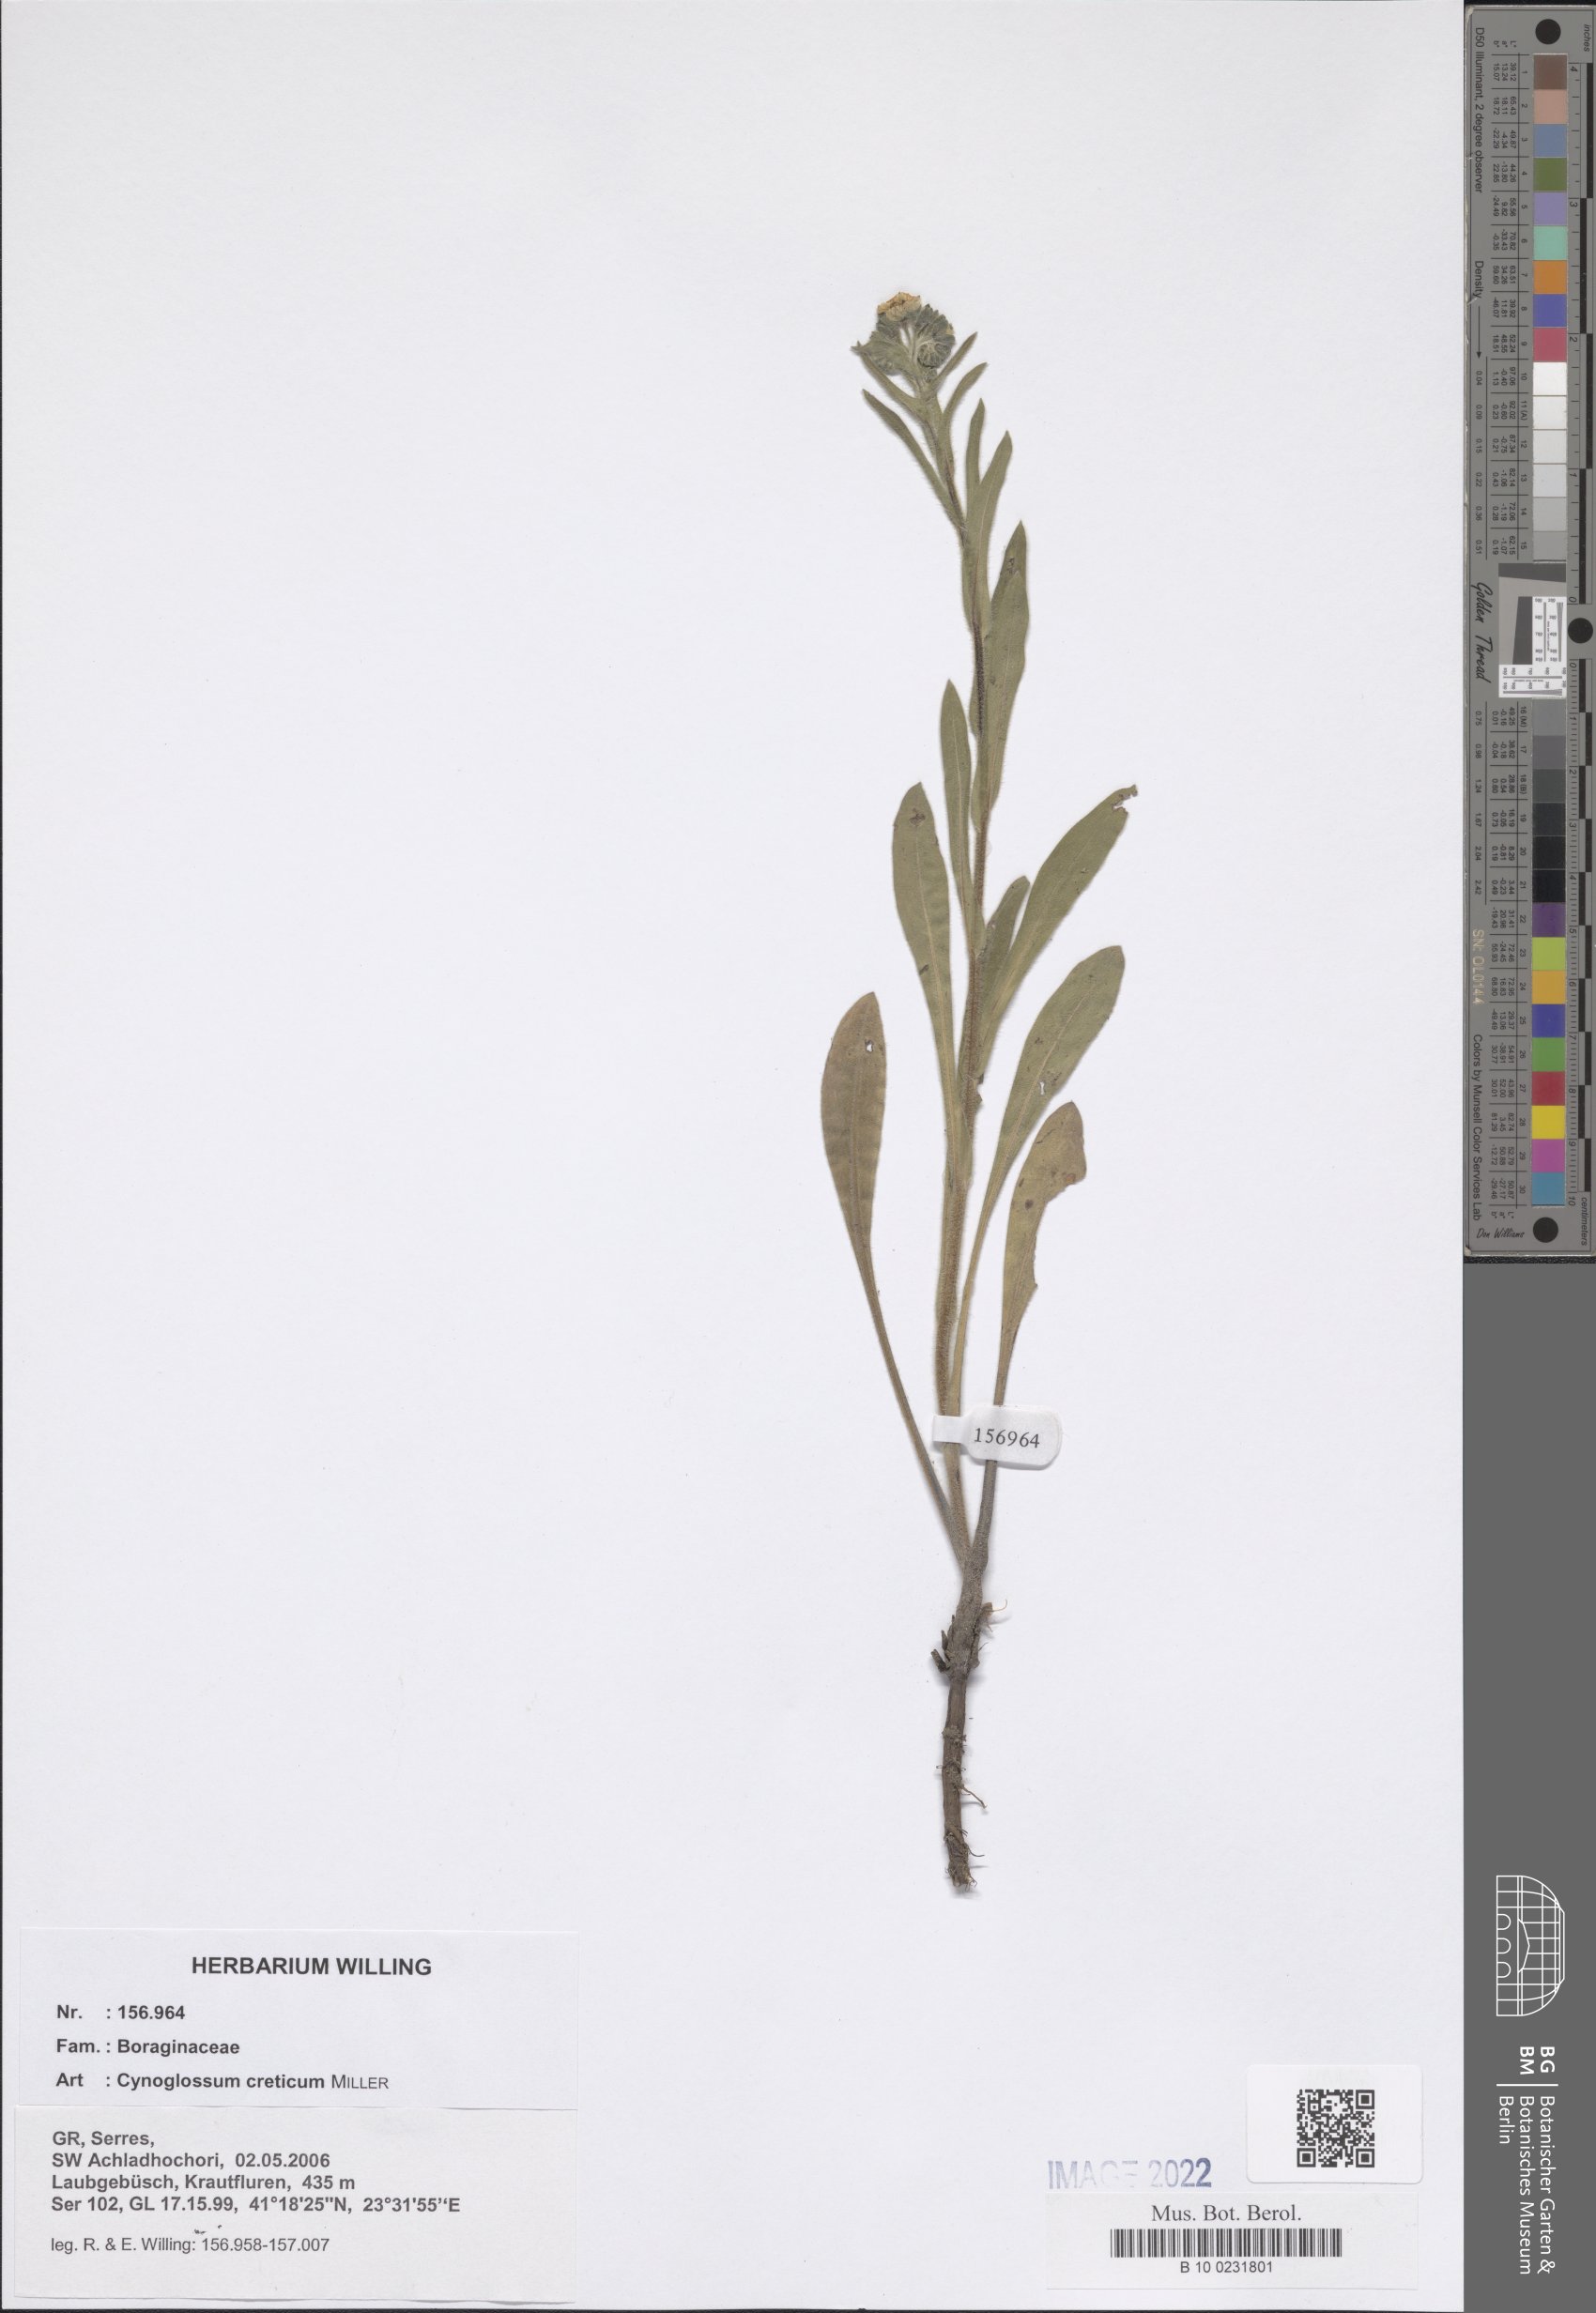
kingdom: Plantae
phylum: Tracheophyta
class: Magnoliopsida
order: Boraginales
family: Boraginaceae
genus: Cynoglossum
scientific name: Cynoglossum creticum
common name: Blue hound's tongue
